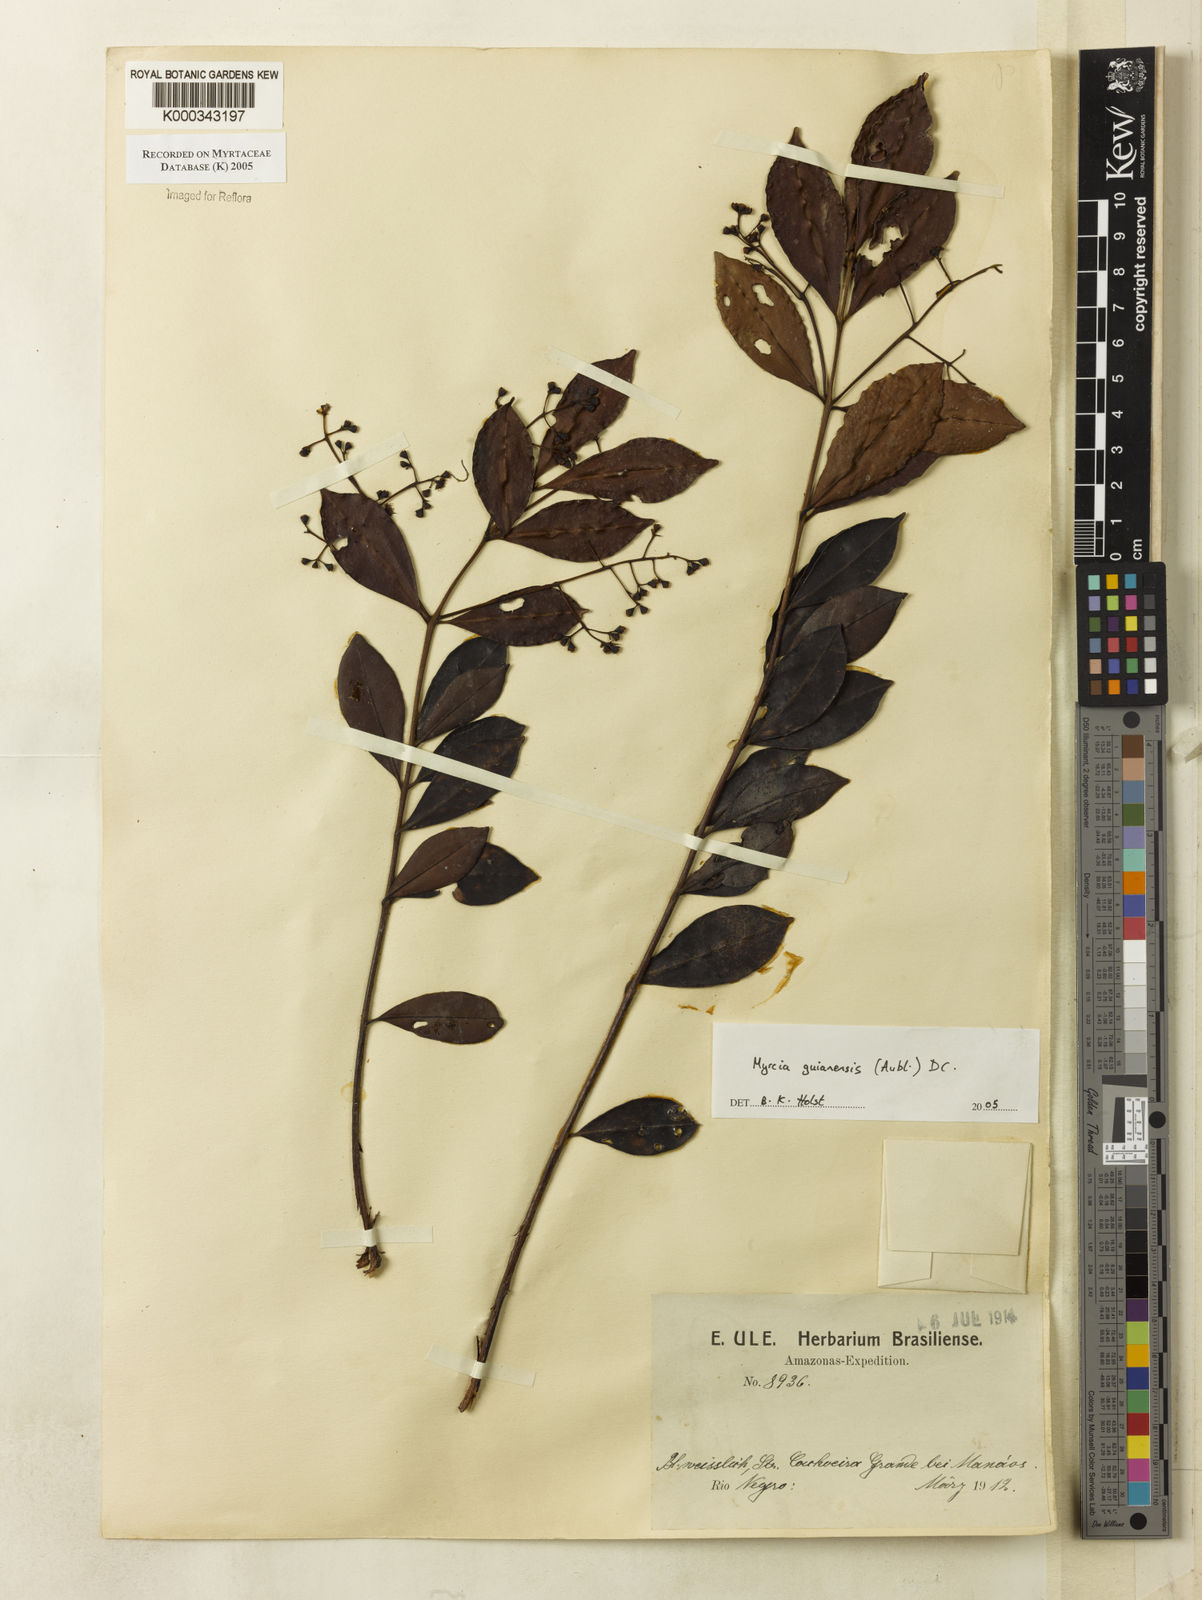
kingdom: Plantae
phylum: Tracheophyta
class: Magnoliopsida
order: Myrtales
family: Myrtaceae
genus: Myrcia
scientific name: Myrcia guianensis
